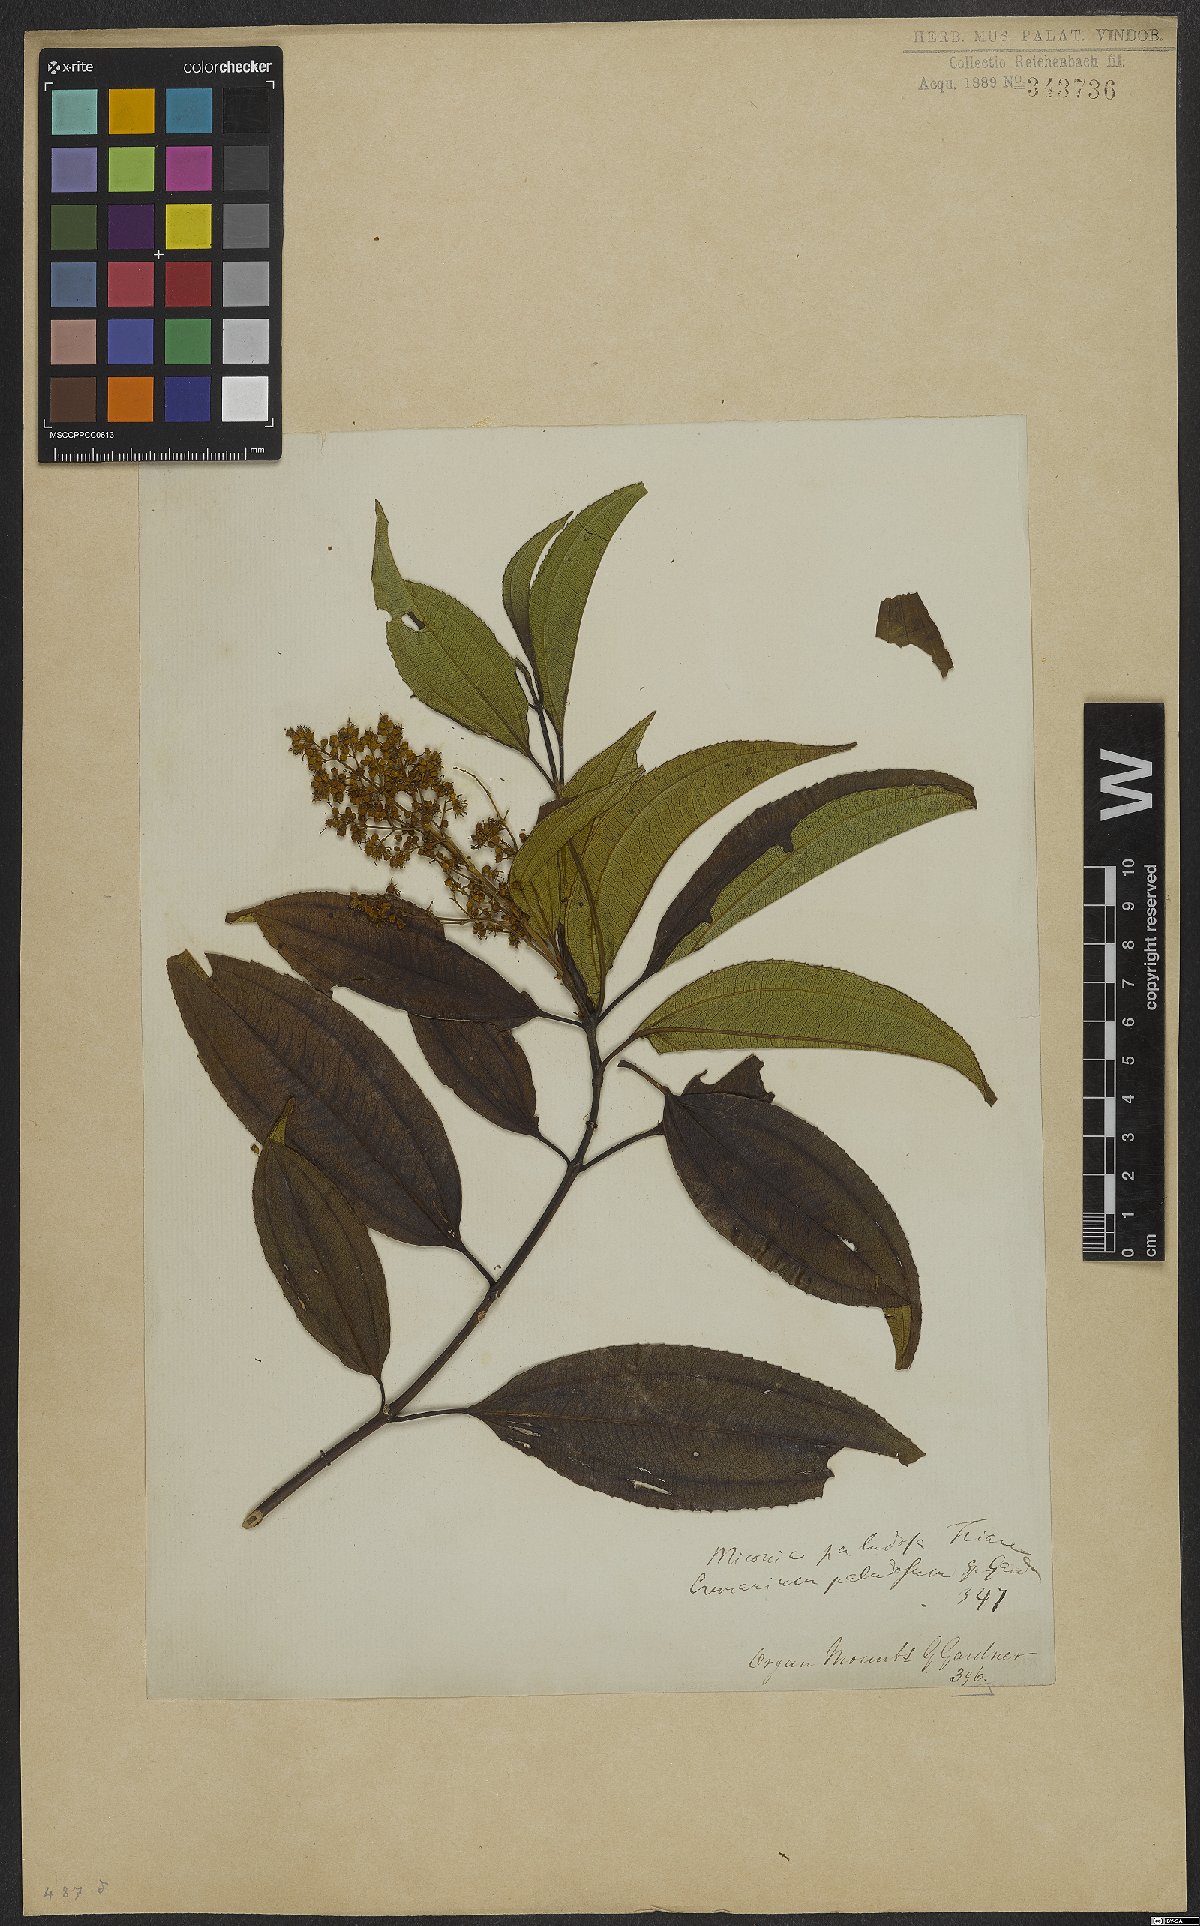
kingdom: Plantae
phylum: Tracheophyta
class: Magnoliopsida
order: Myrtales
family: Melastomataceae
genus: Miconia
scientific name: Miconia theizans
